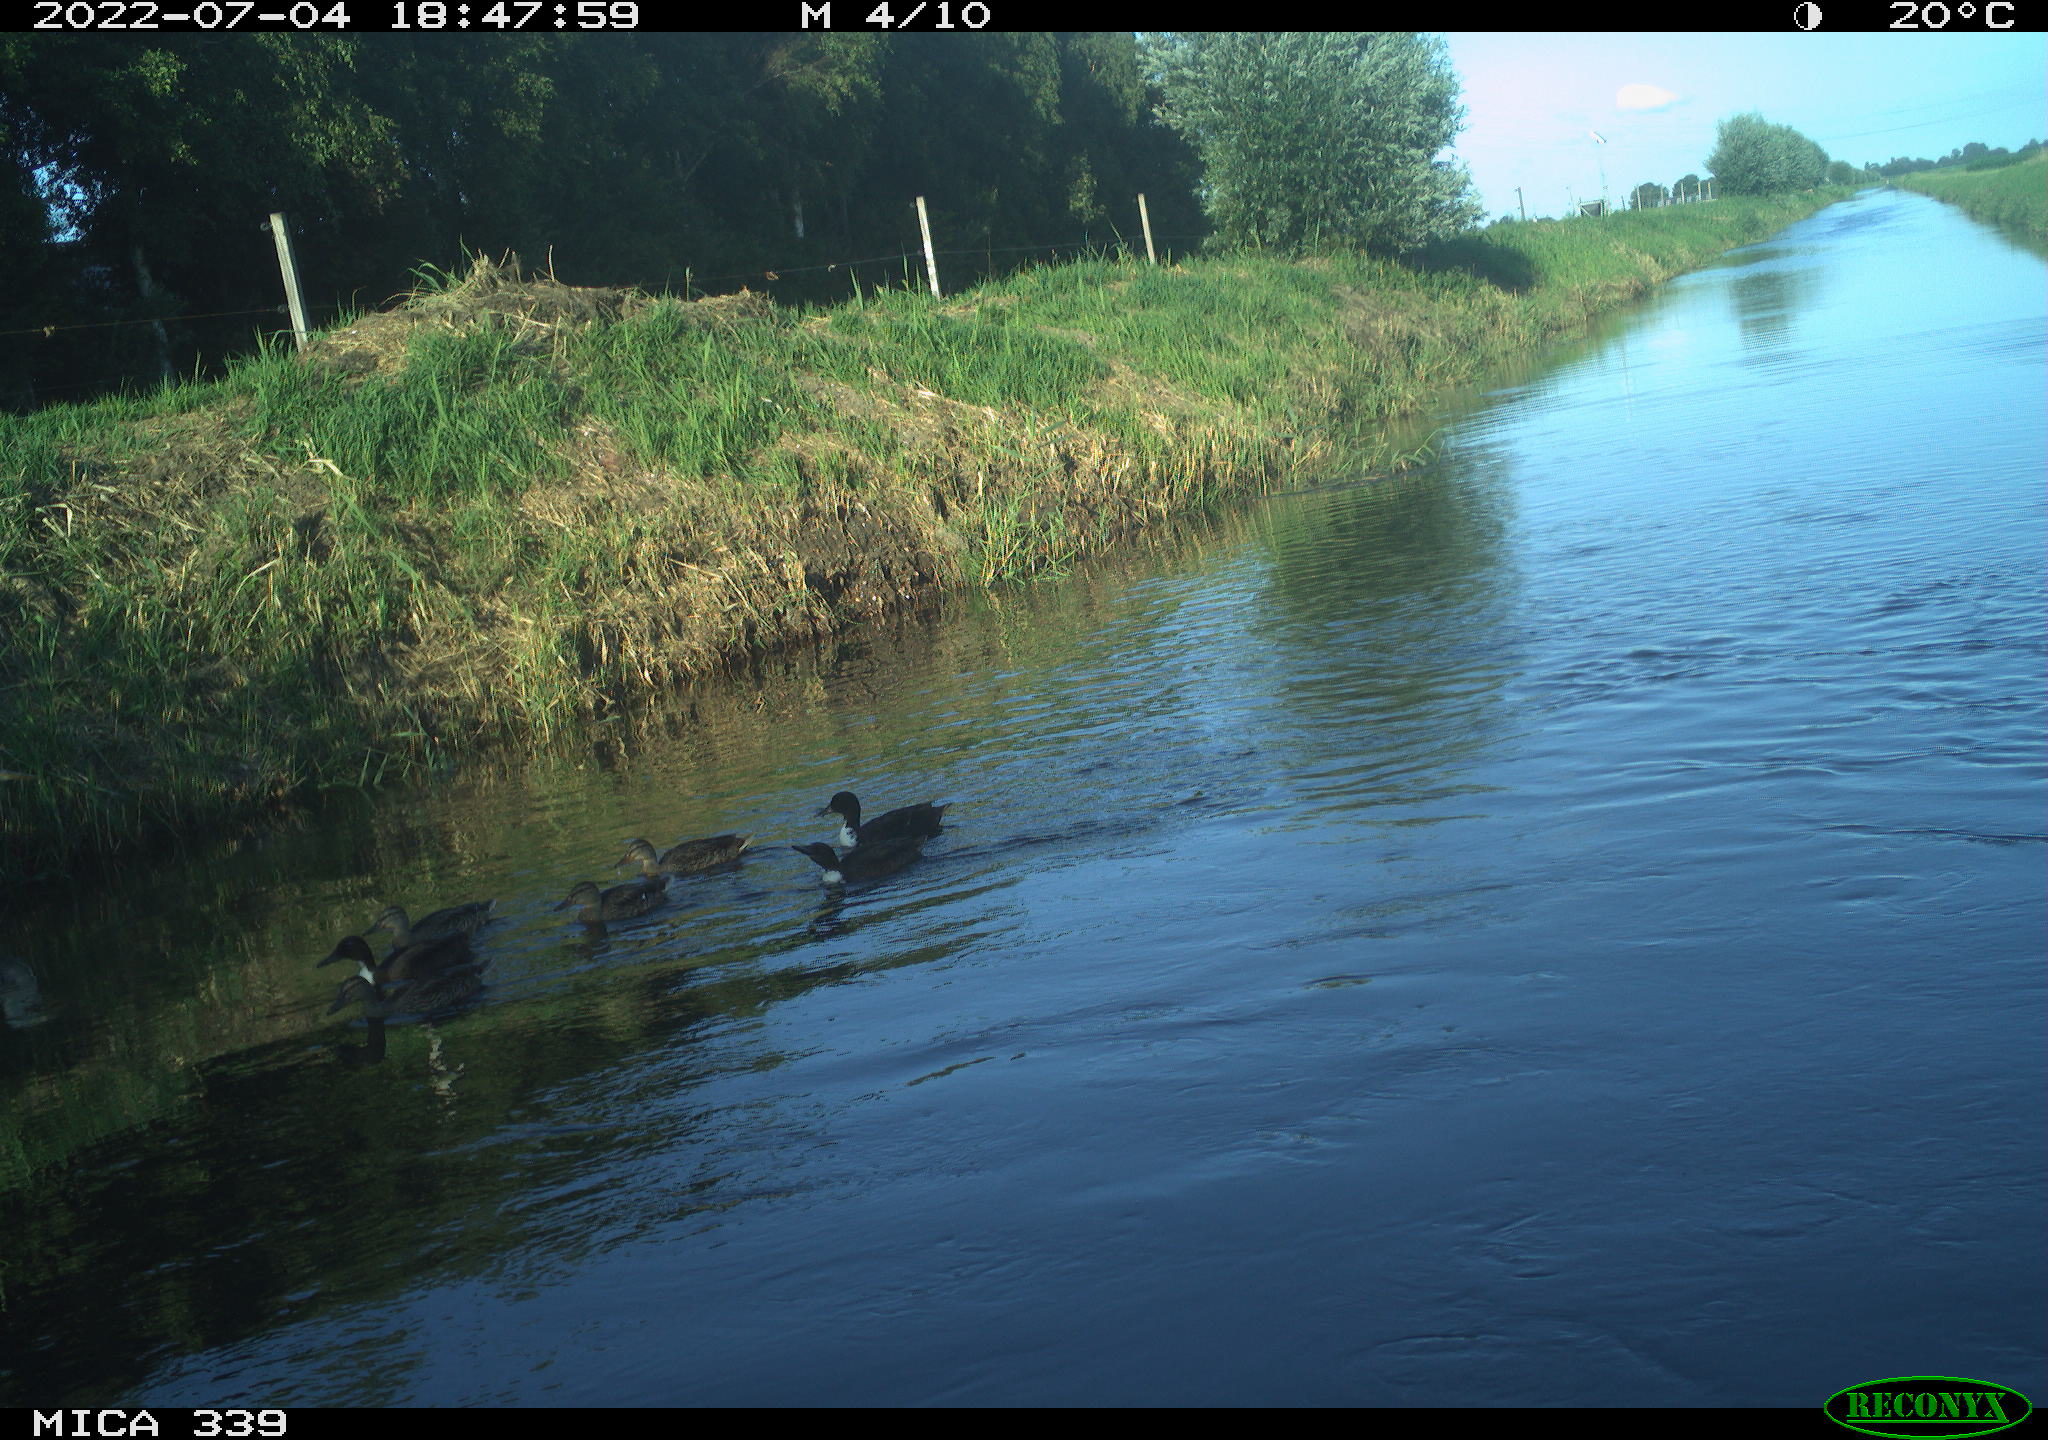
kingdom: Animalia
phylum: Chordata
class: Aves
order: Anseriformes
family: Anatidae
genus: Anas
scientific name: Anas platyrhynchos
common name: Mallard
